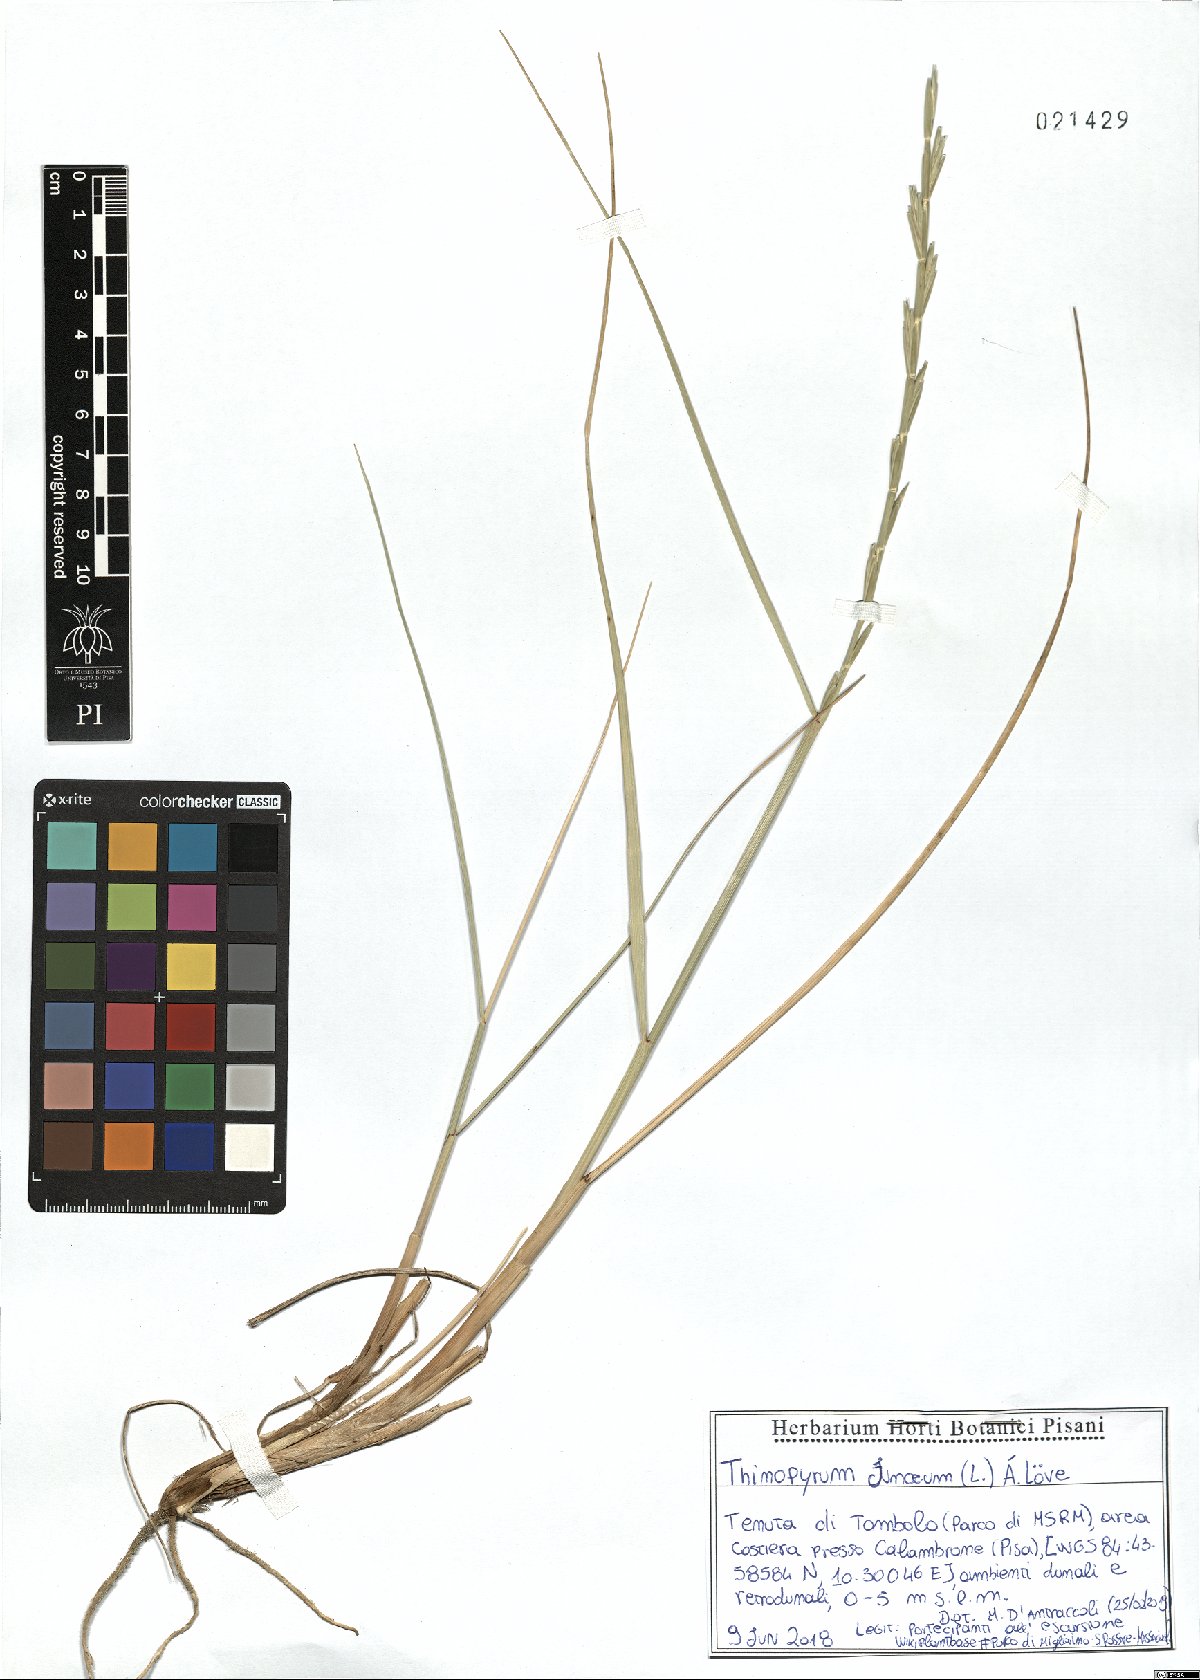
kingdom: Plantae
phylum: Tracheophyta
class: Liliopsida
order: Poales
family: Poaceae
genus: Thinopyrum
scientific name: Thinopyrum junceum
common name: Russian wheatgrass
